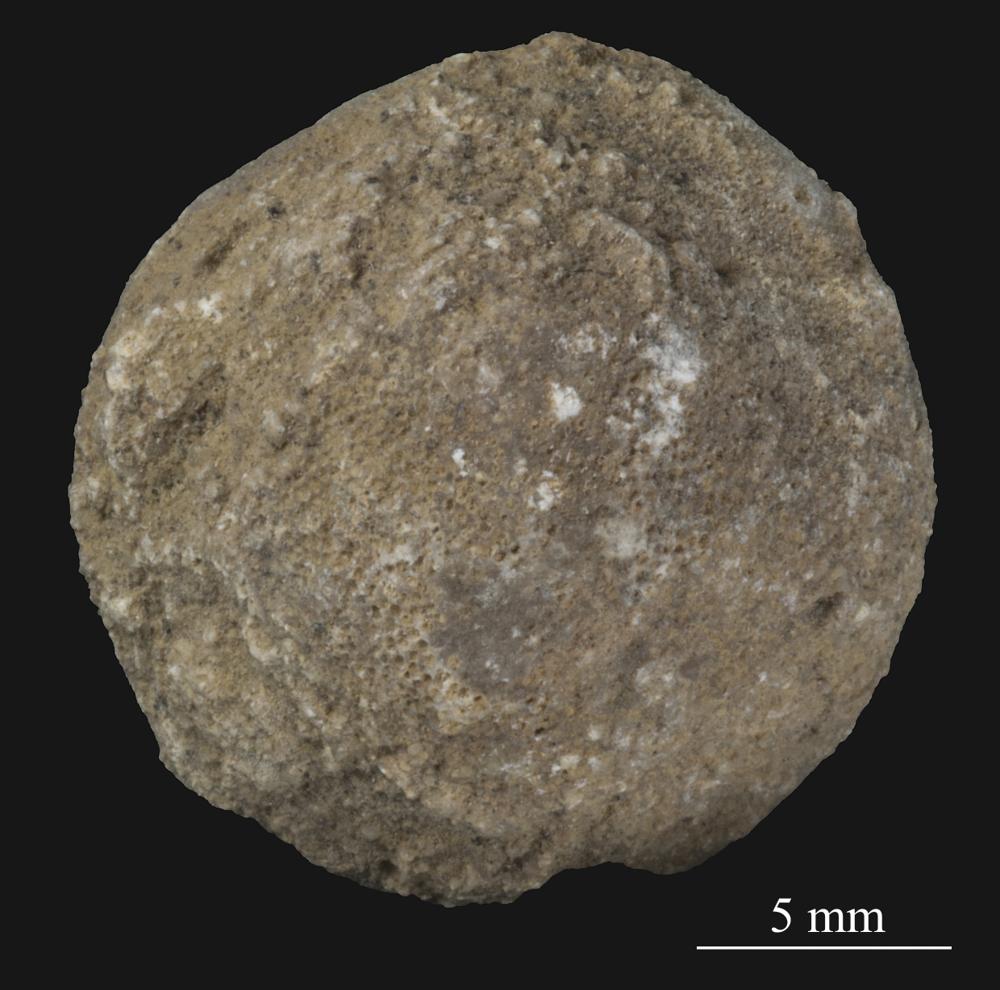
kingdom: Animalia
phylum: Bryozoa
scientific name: Bryozoa
